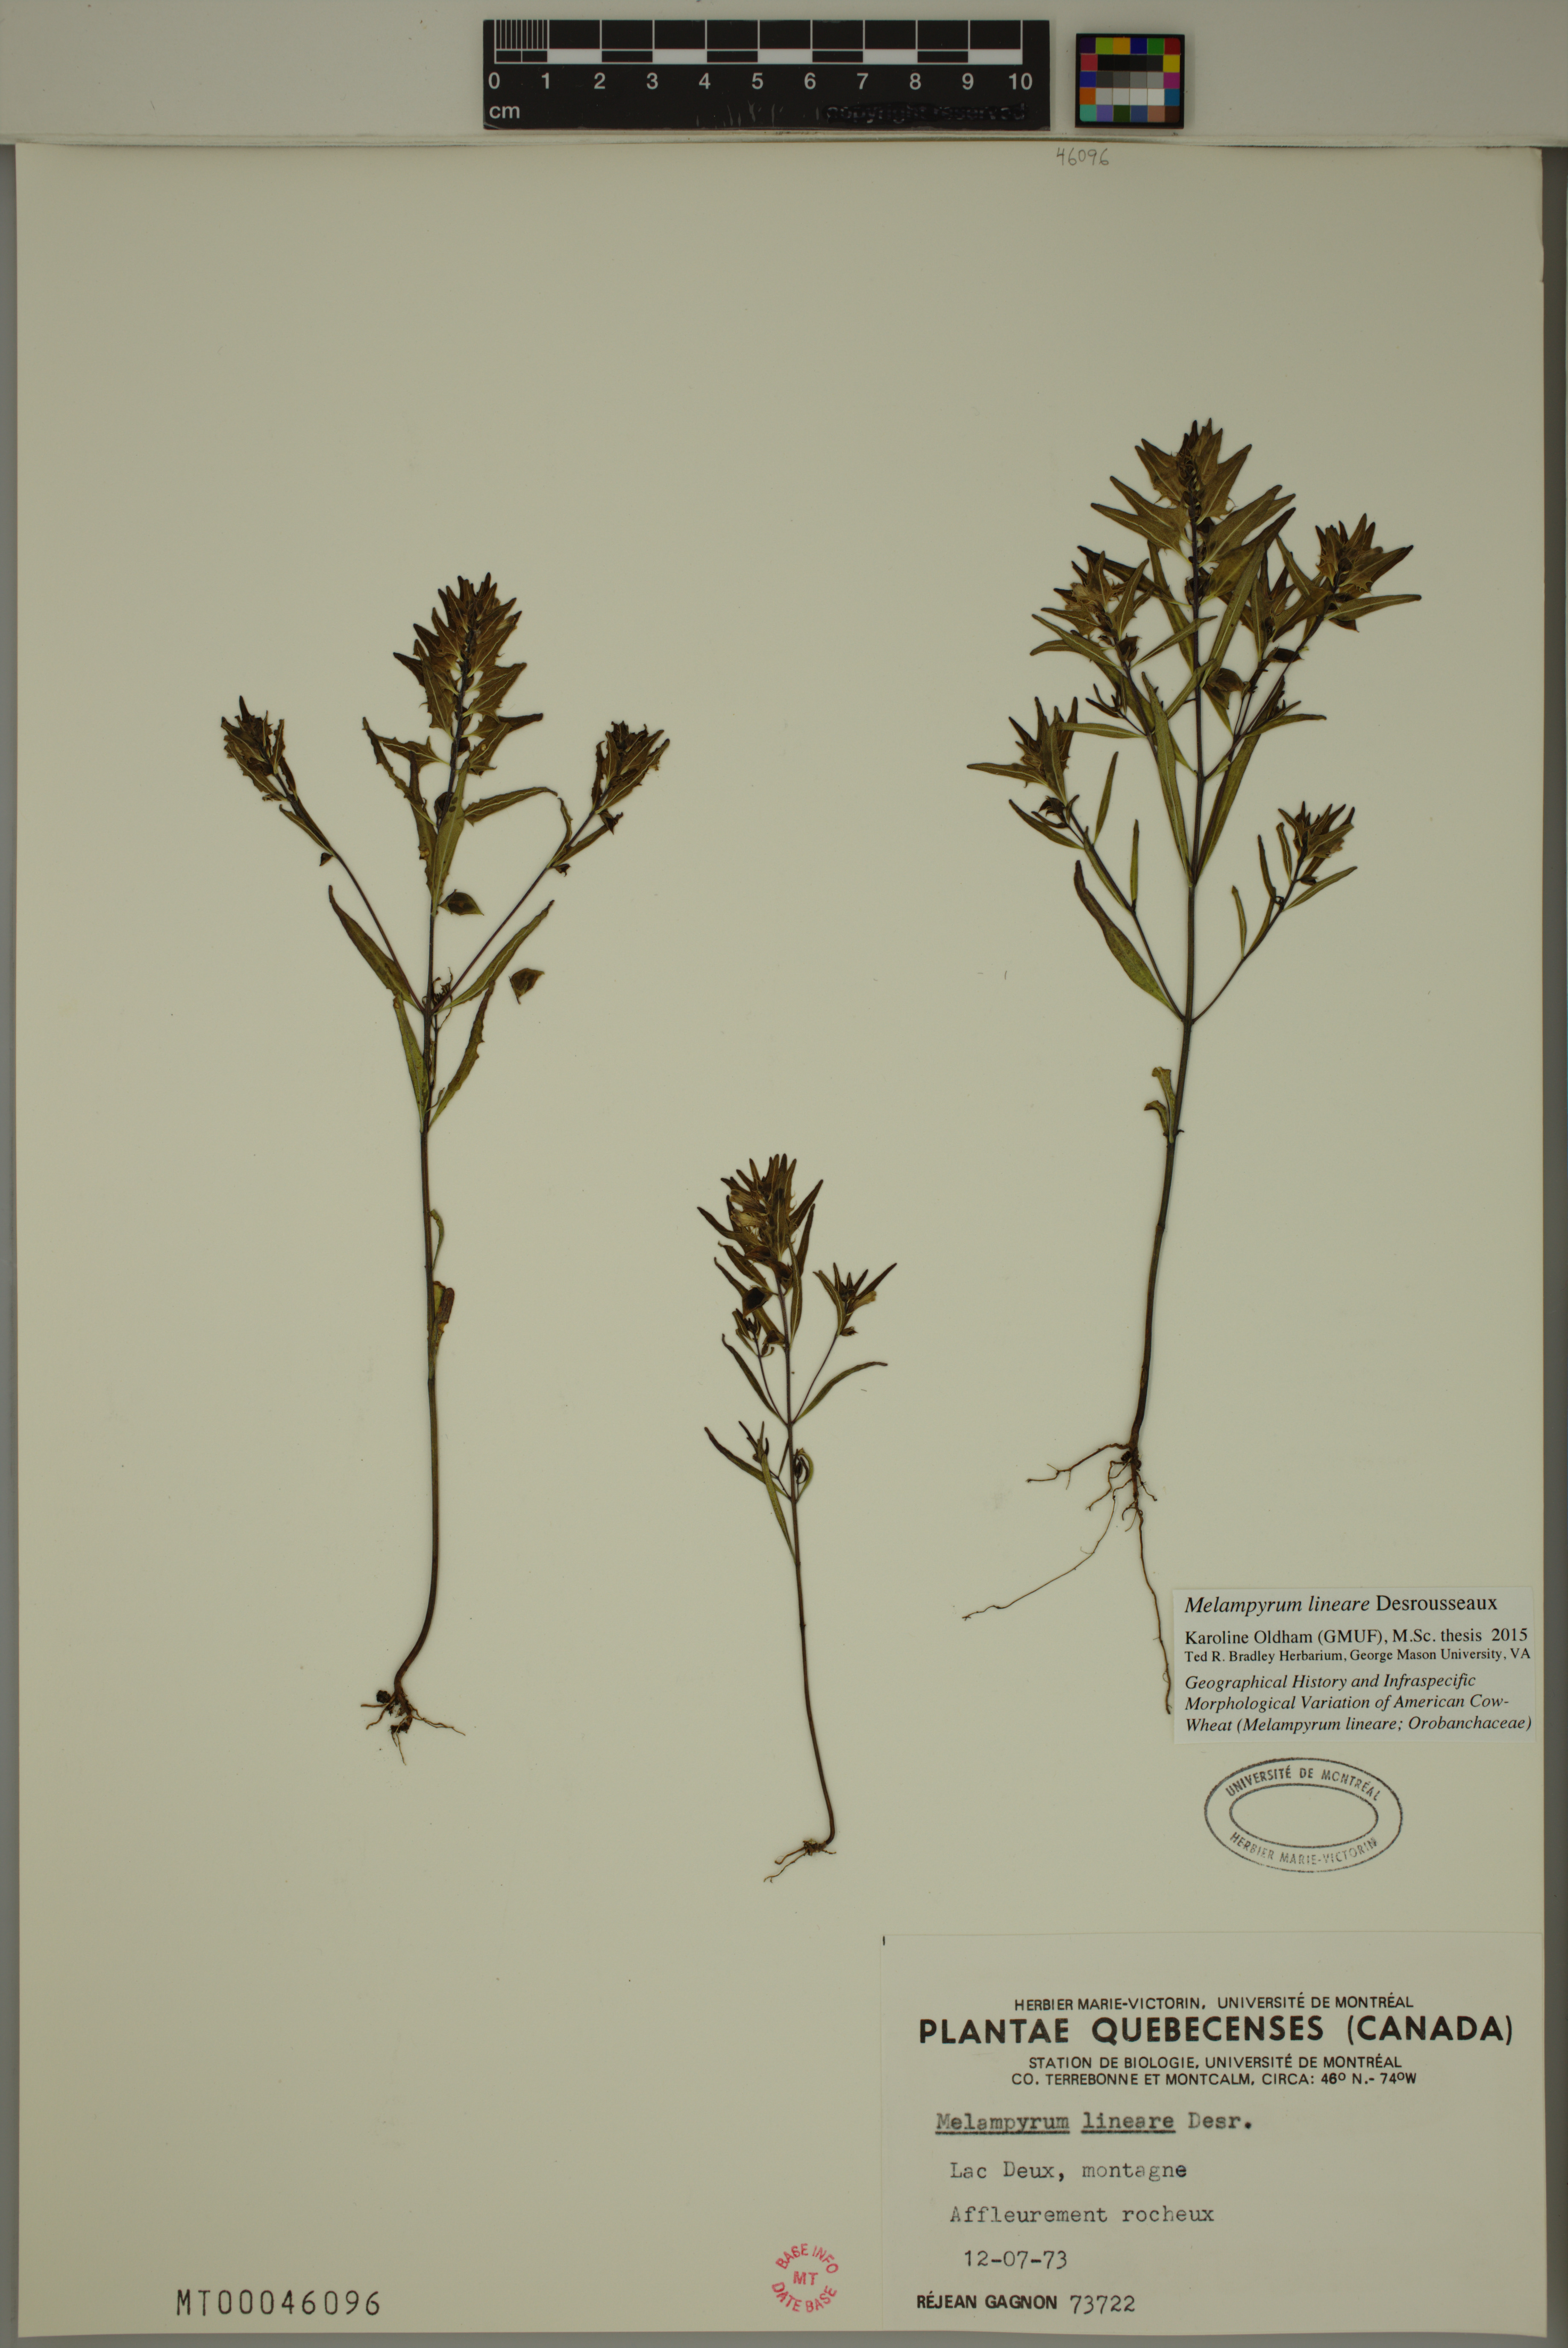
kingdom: Plantae
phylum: Tracheophyta
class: Magnoliopsida
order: Lamiales
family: Orobanchaceae
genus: Melampyrum
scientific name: Melampyrum lineare
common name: American cow-wheat
